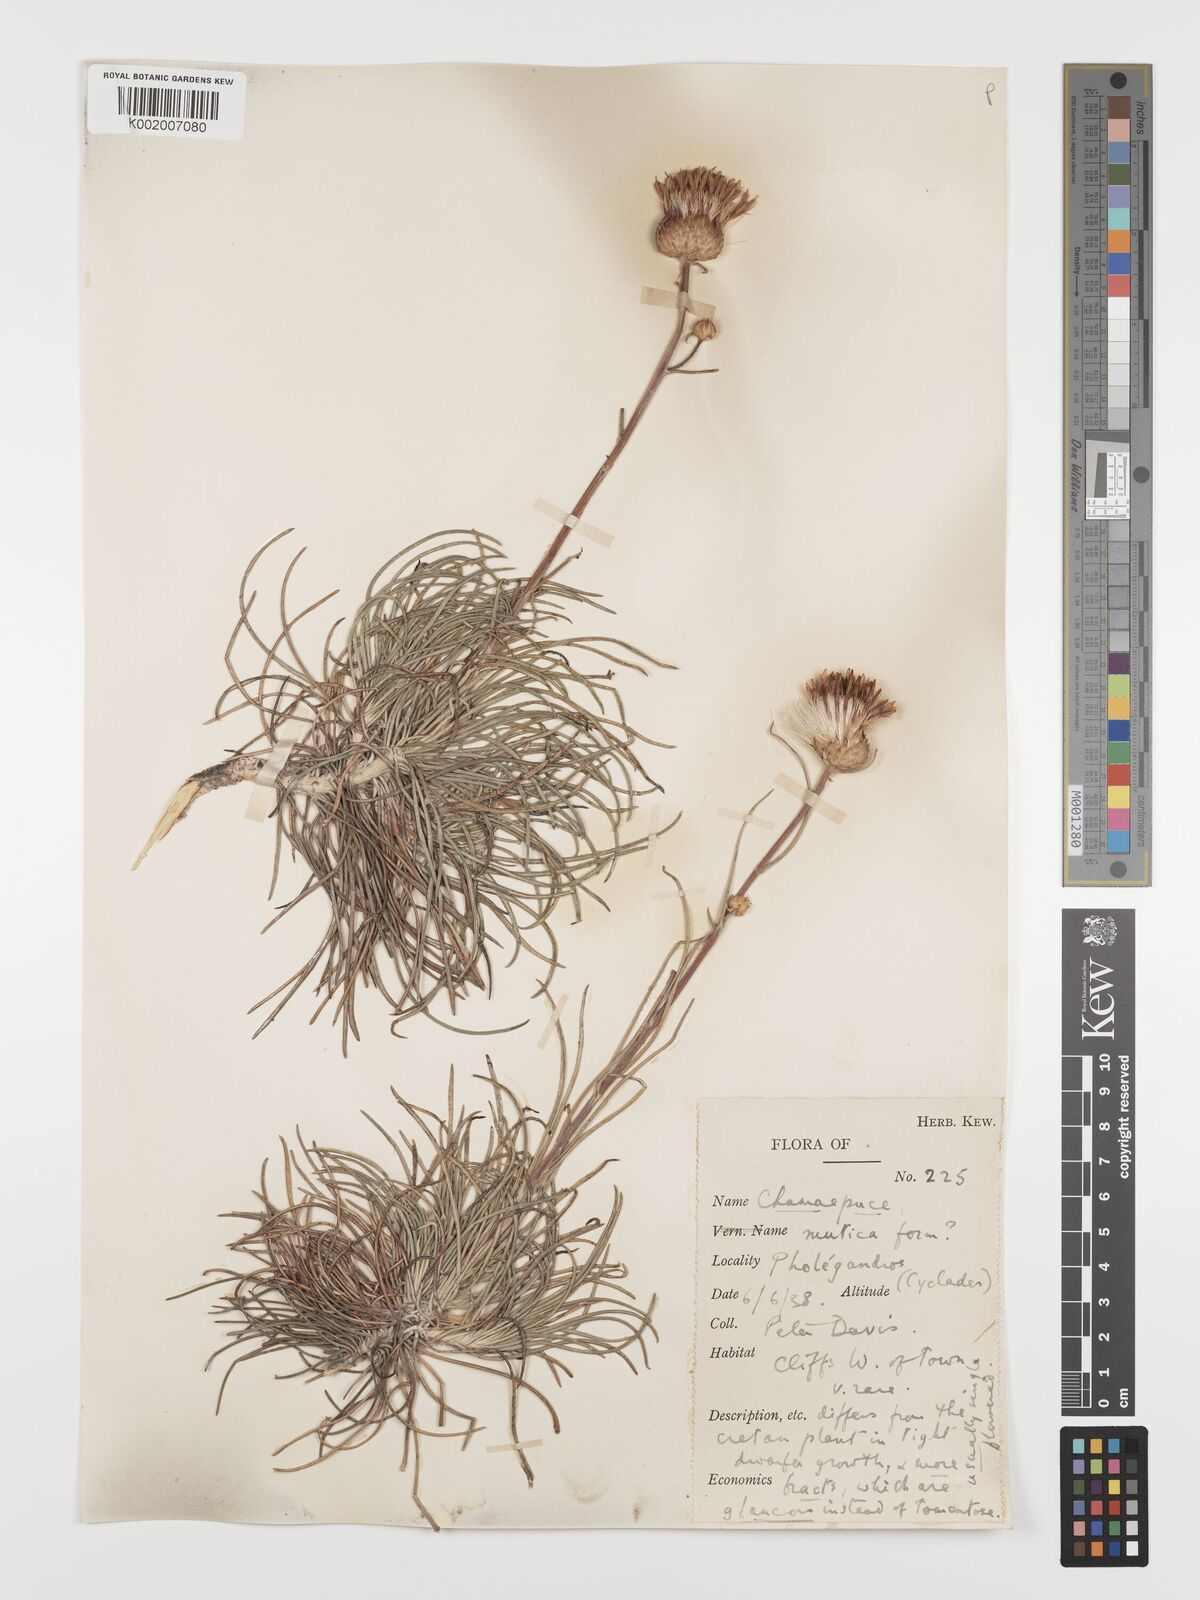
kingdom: Plantae
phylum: Tracheophyta
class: Magnoliopsida
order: Asterales
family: Asteraceae
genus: Ptilostemon
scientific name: Ptilostemon chamaepeuce
